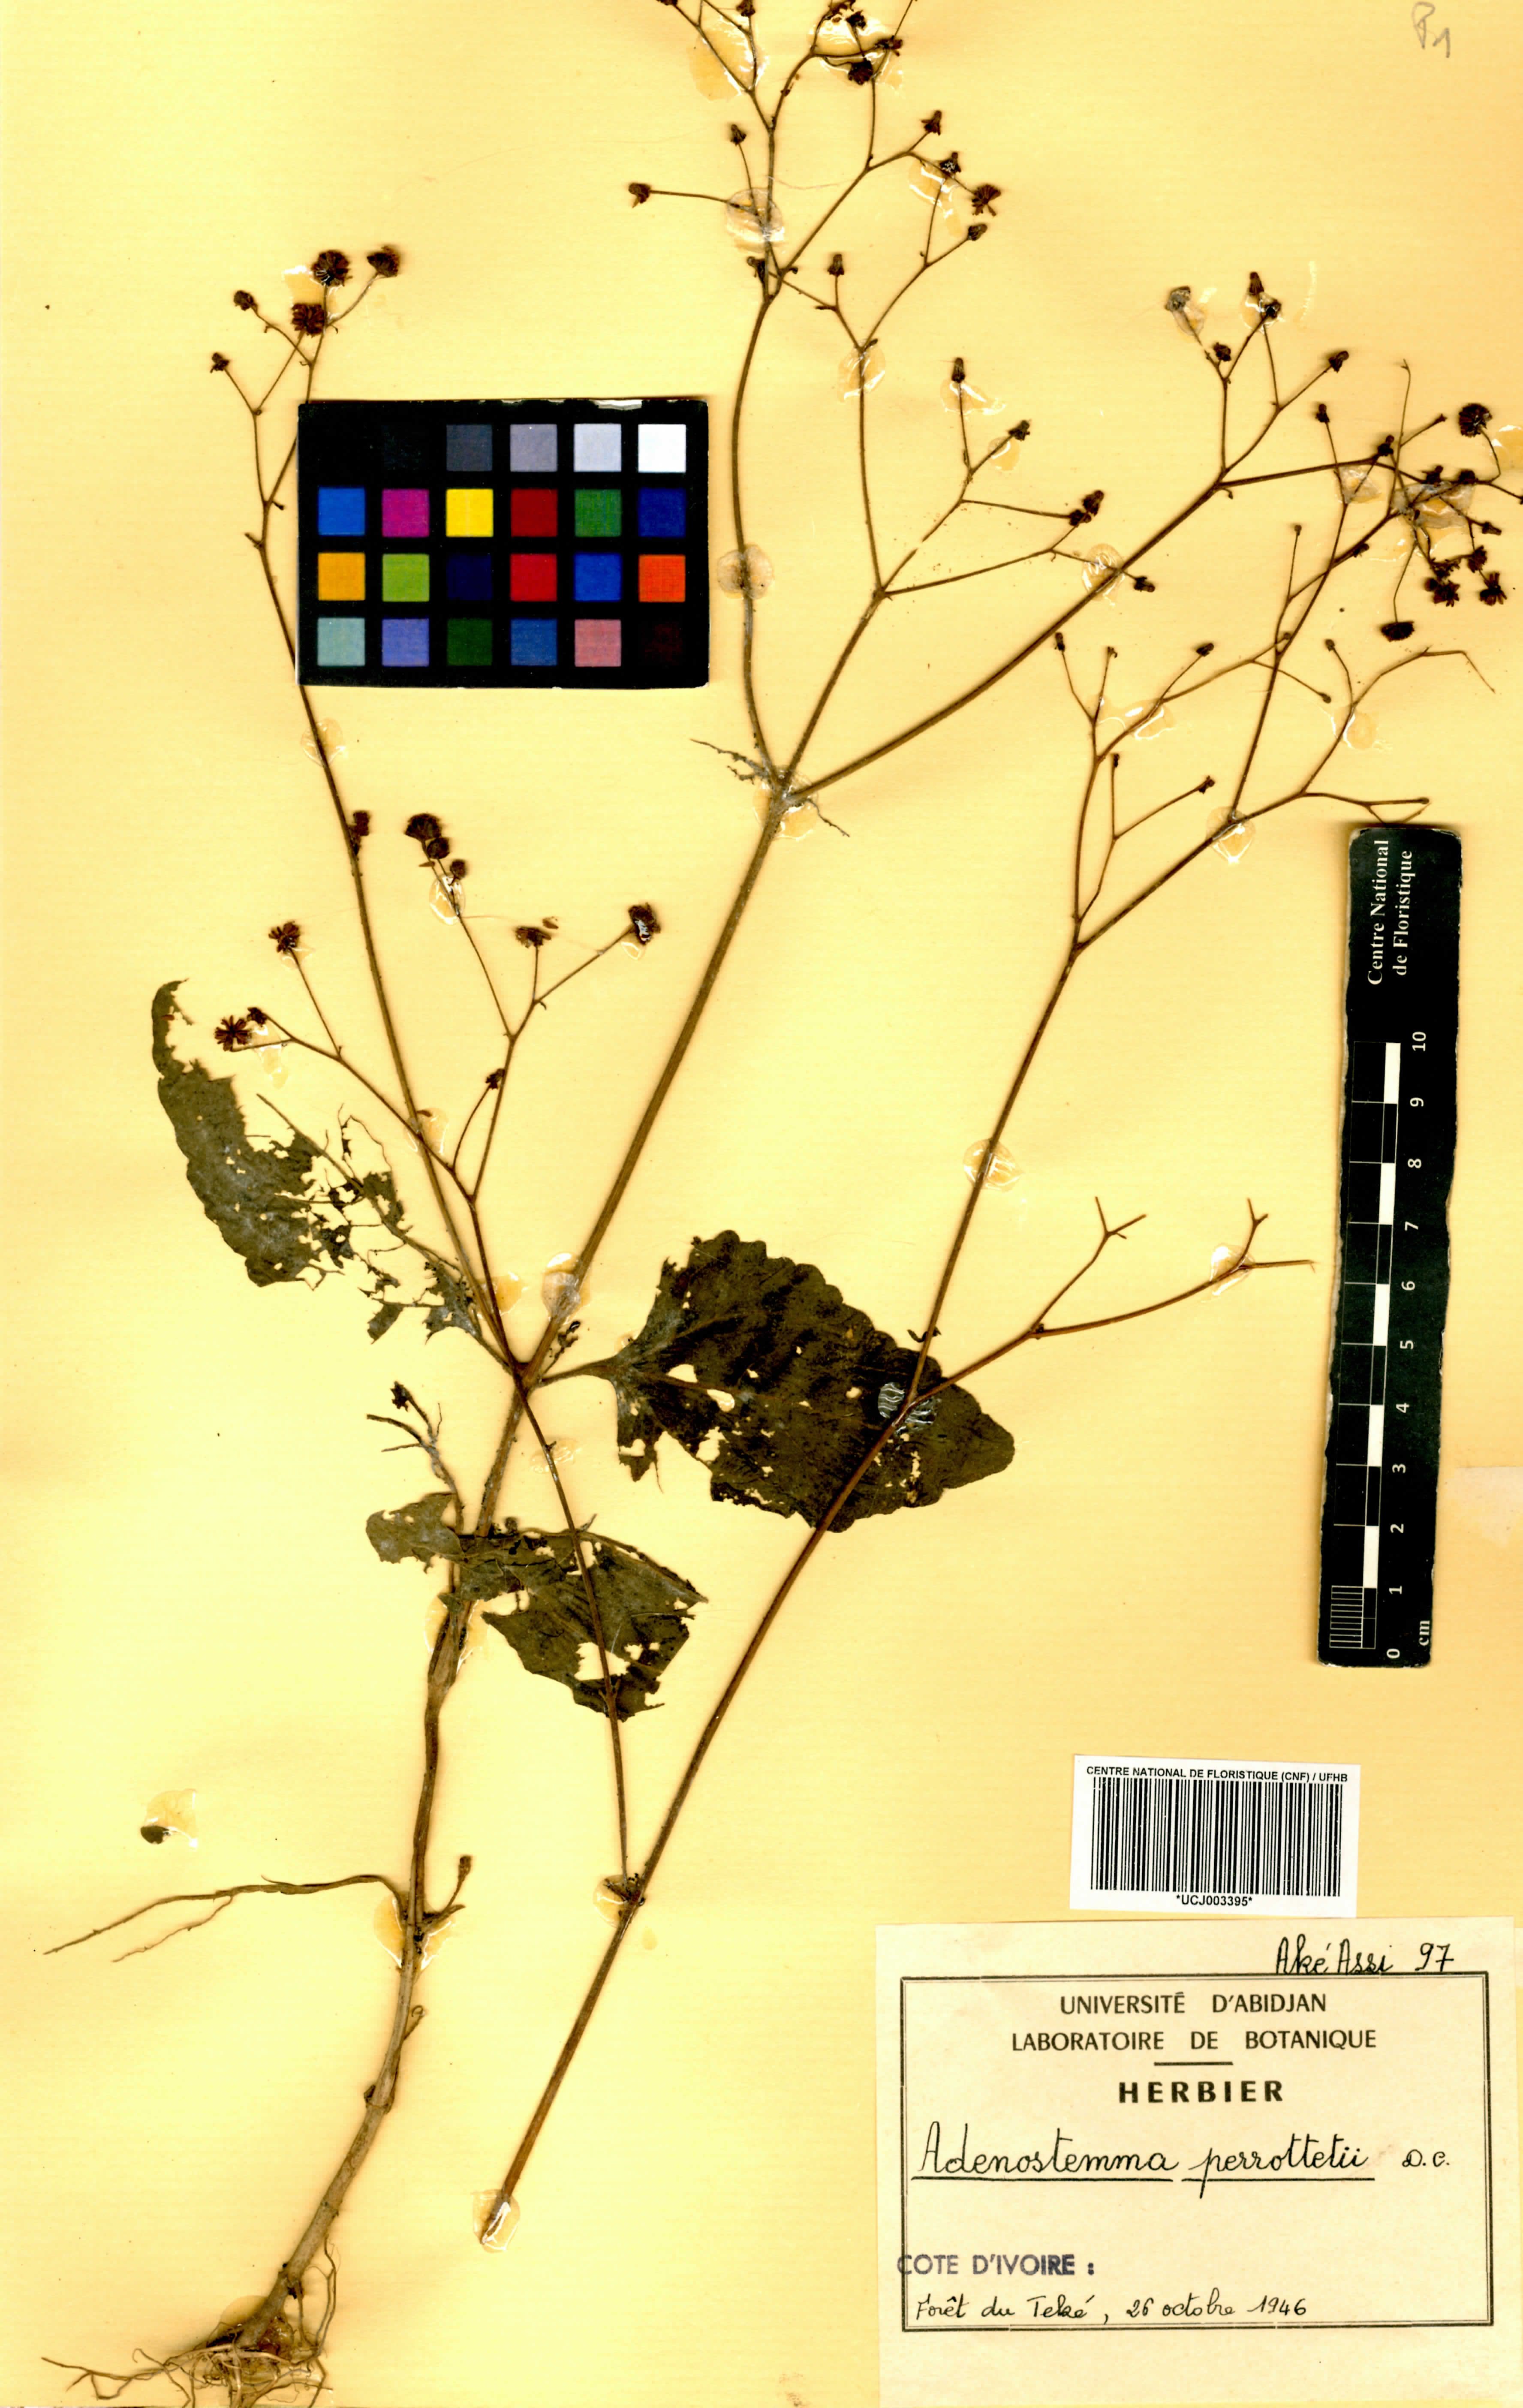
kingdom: Plantae
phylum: Tracheophyta
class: Magnoliopsida
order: Asterales
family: Asteraceae
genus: Adenostemma
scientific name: Adenostemma viscosum
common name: Dungweed
